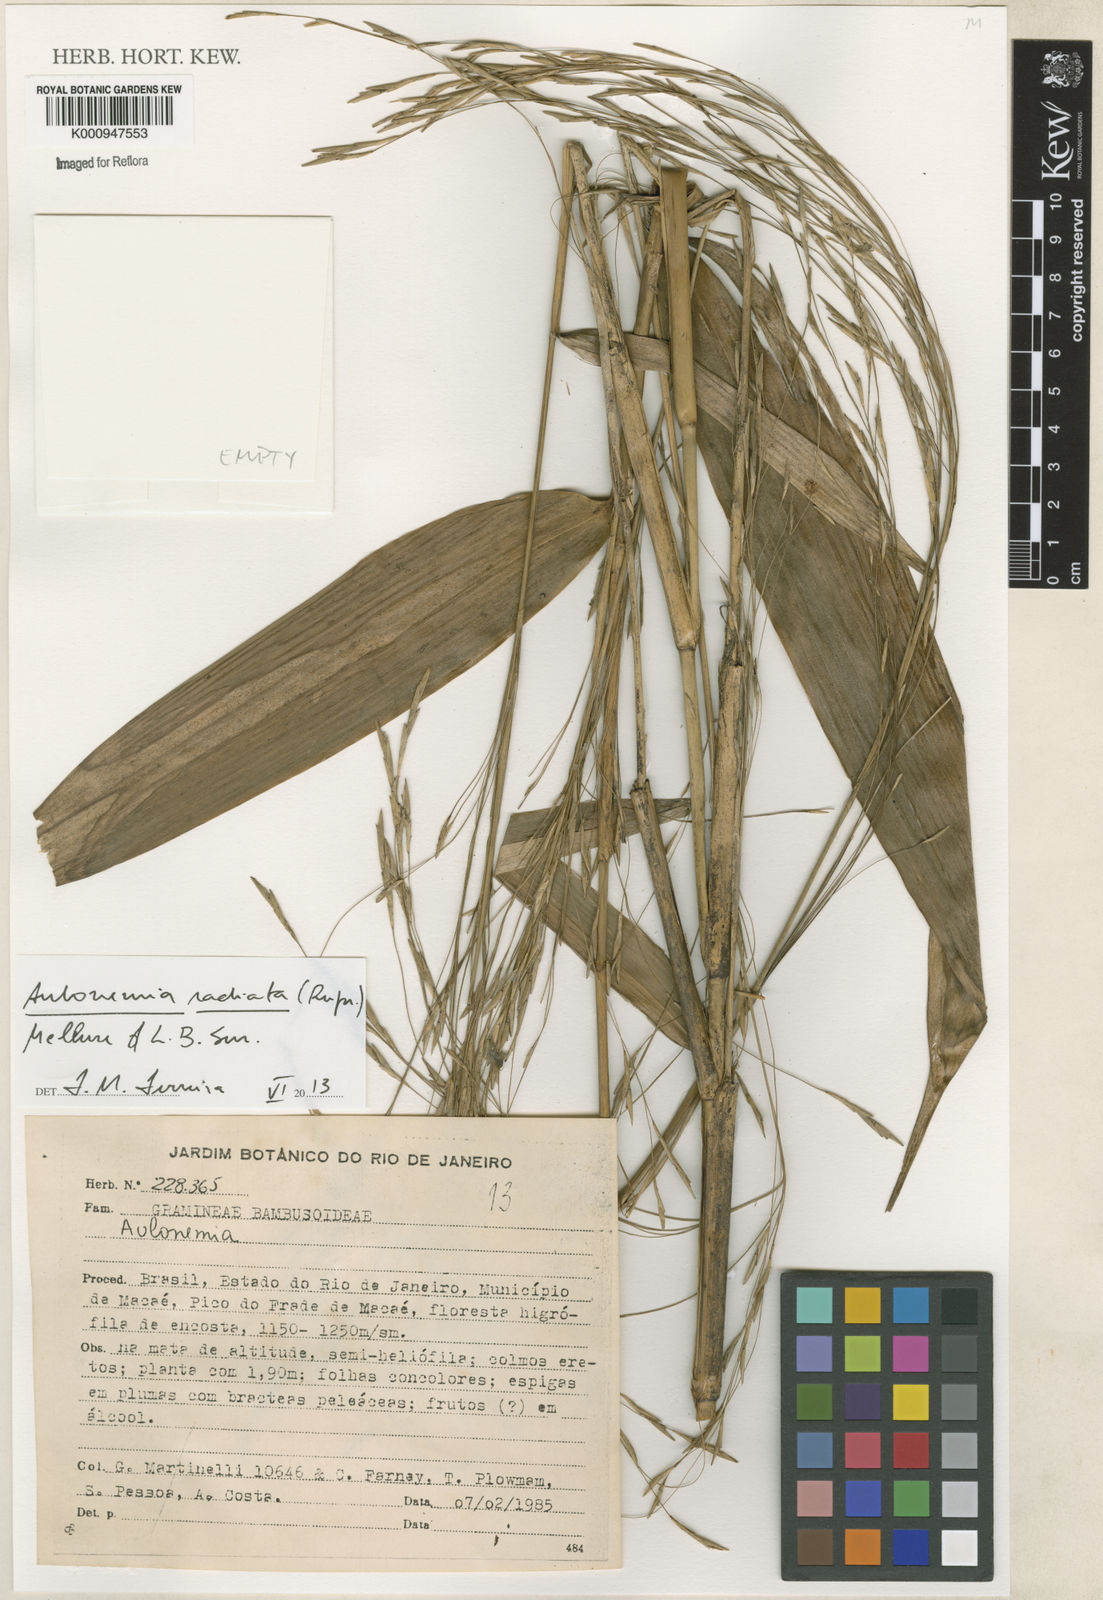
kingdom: Plantae
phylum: Tracheophyta
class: Liliopsida
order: Poales
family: Poaceae
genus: Aulonemia
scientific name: Aulonemia radiata
